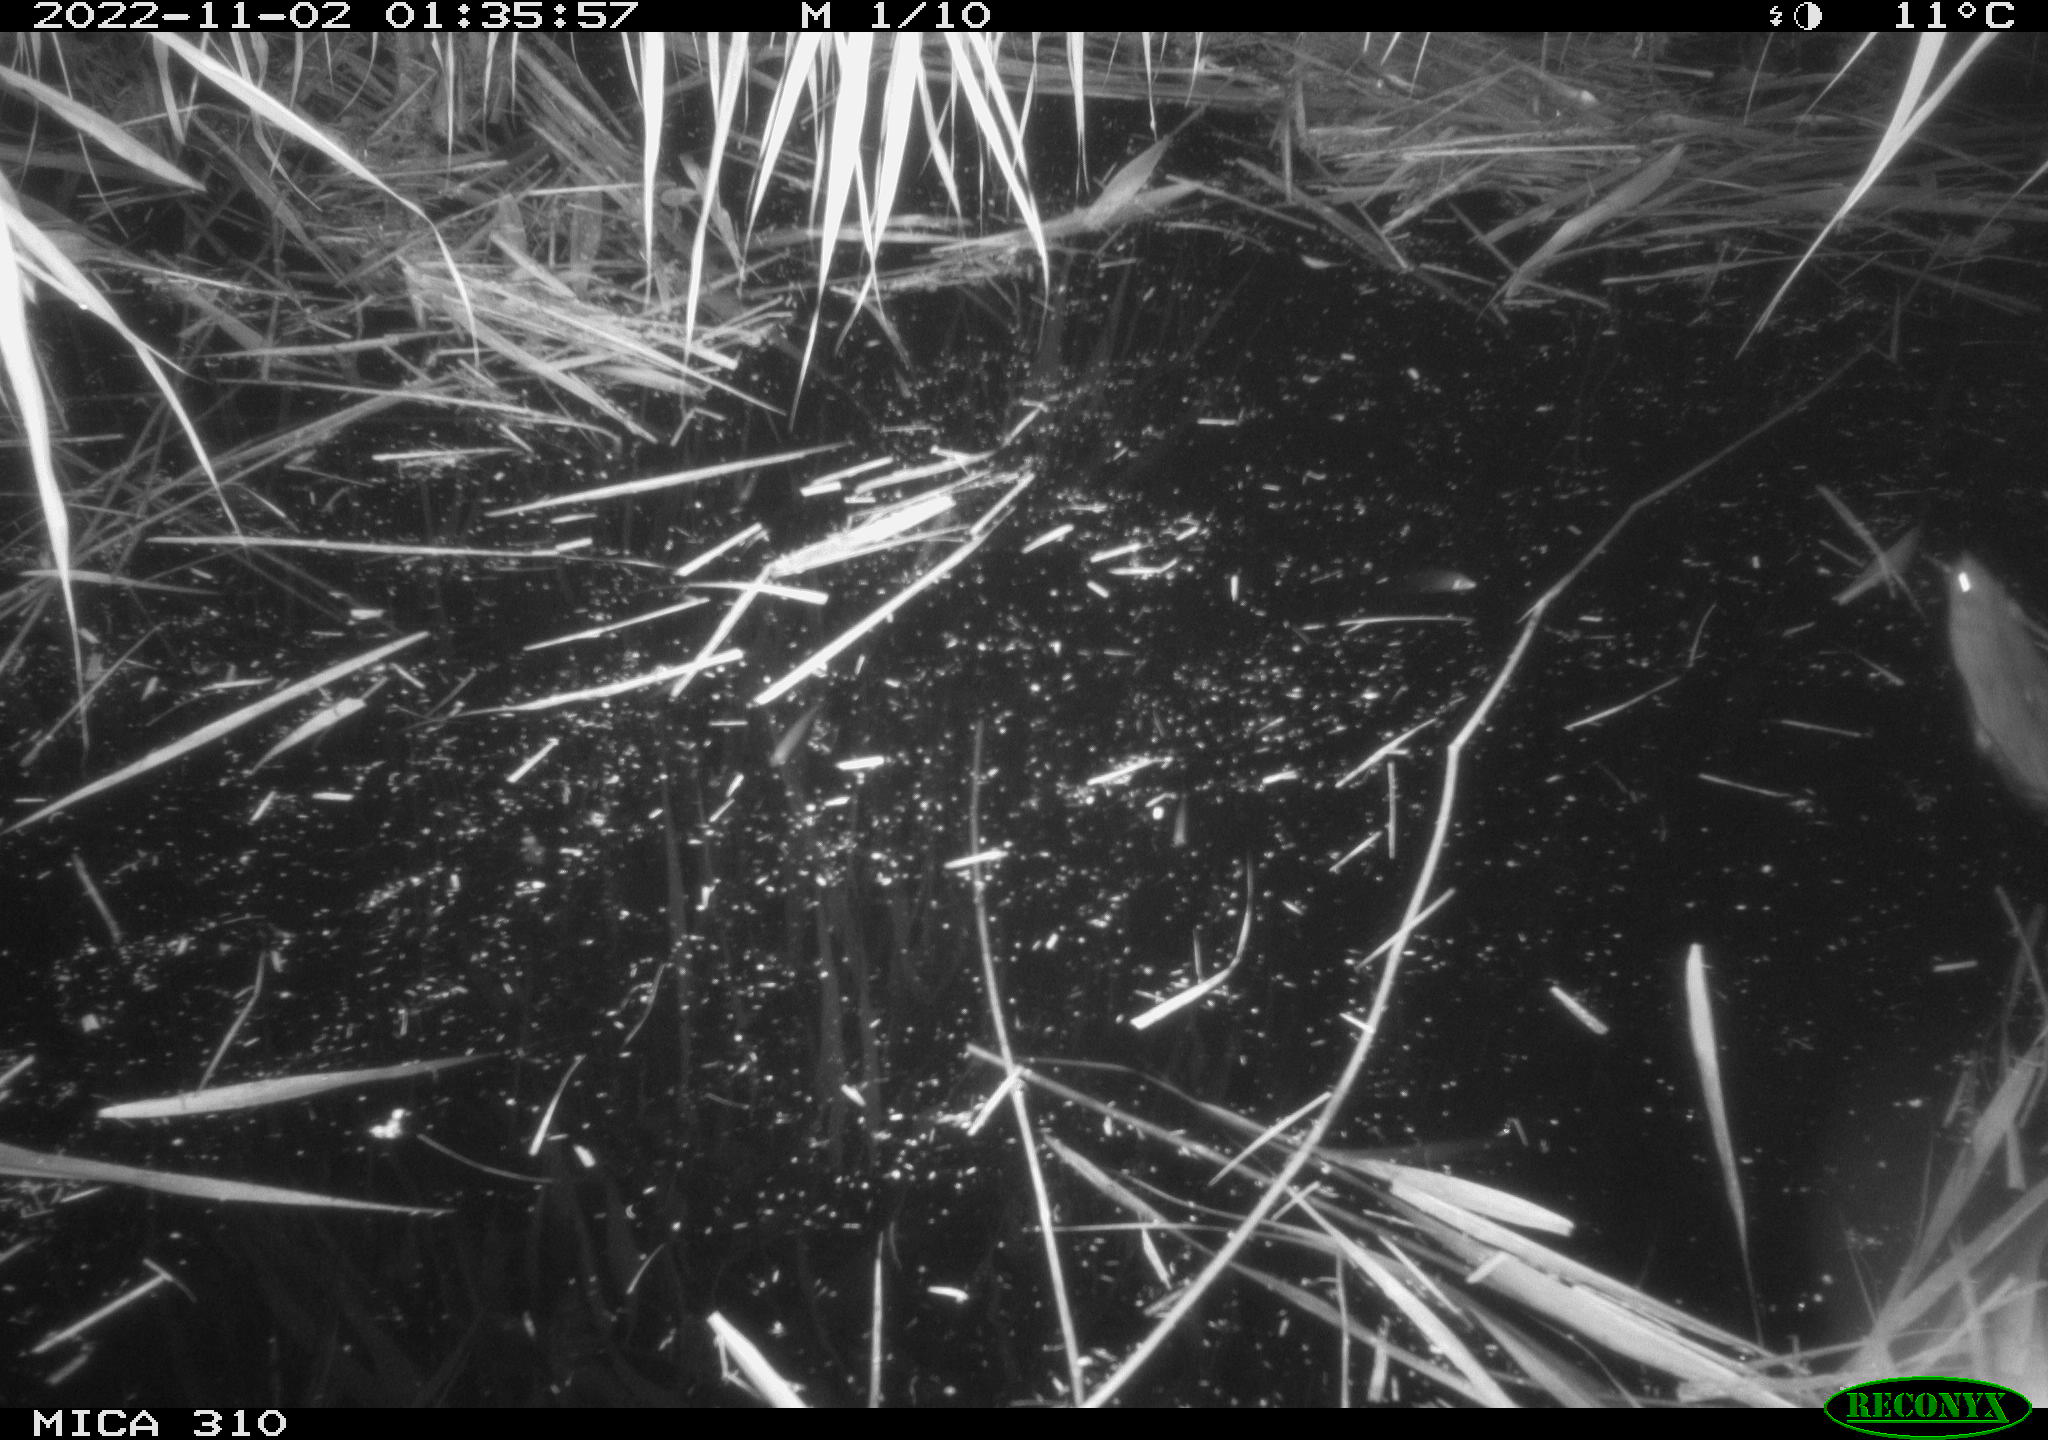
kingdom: Animalia
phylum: Chordata
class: Mammalia
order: Rodentia
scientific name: Rodentia
